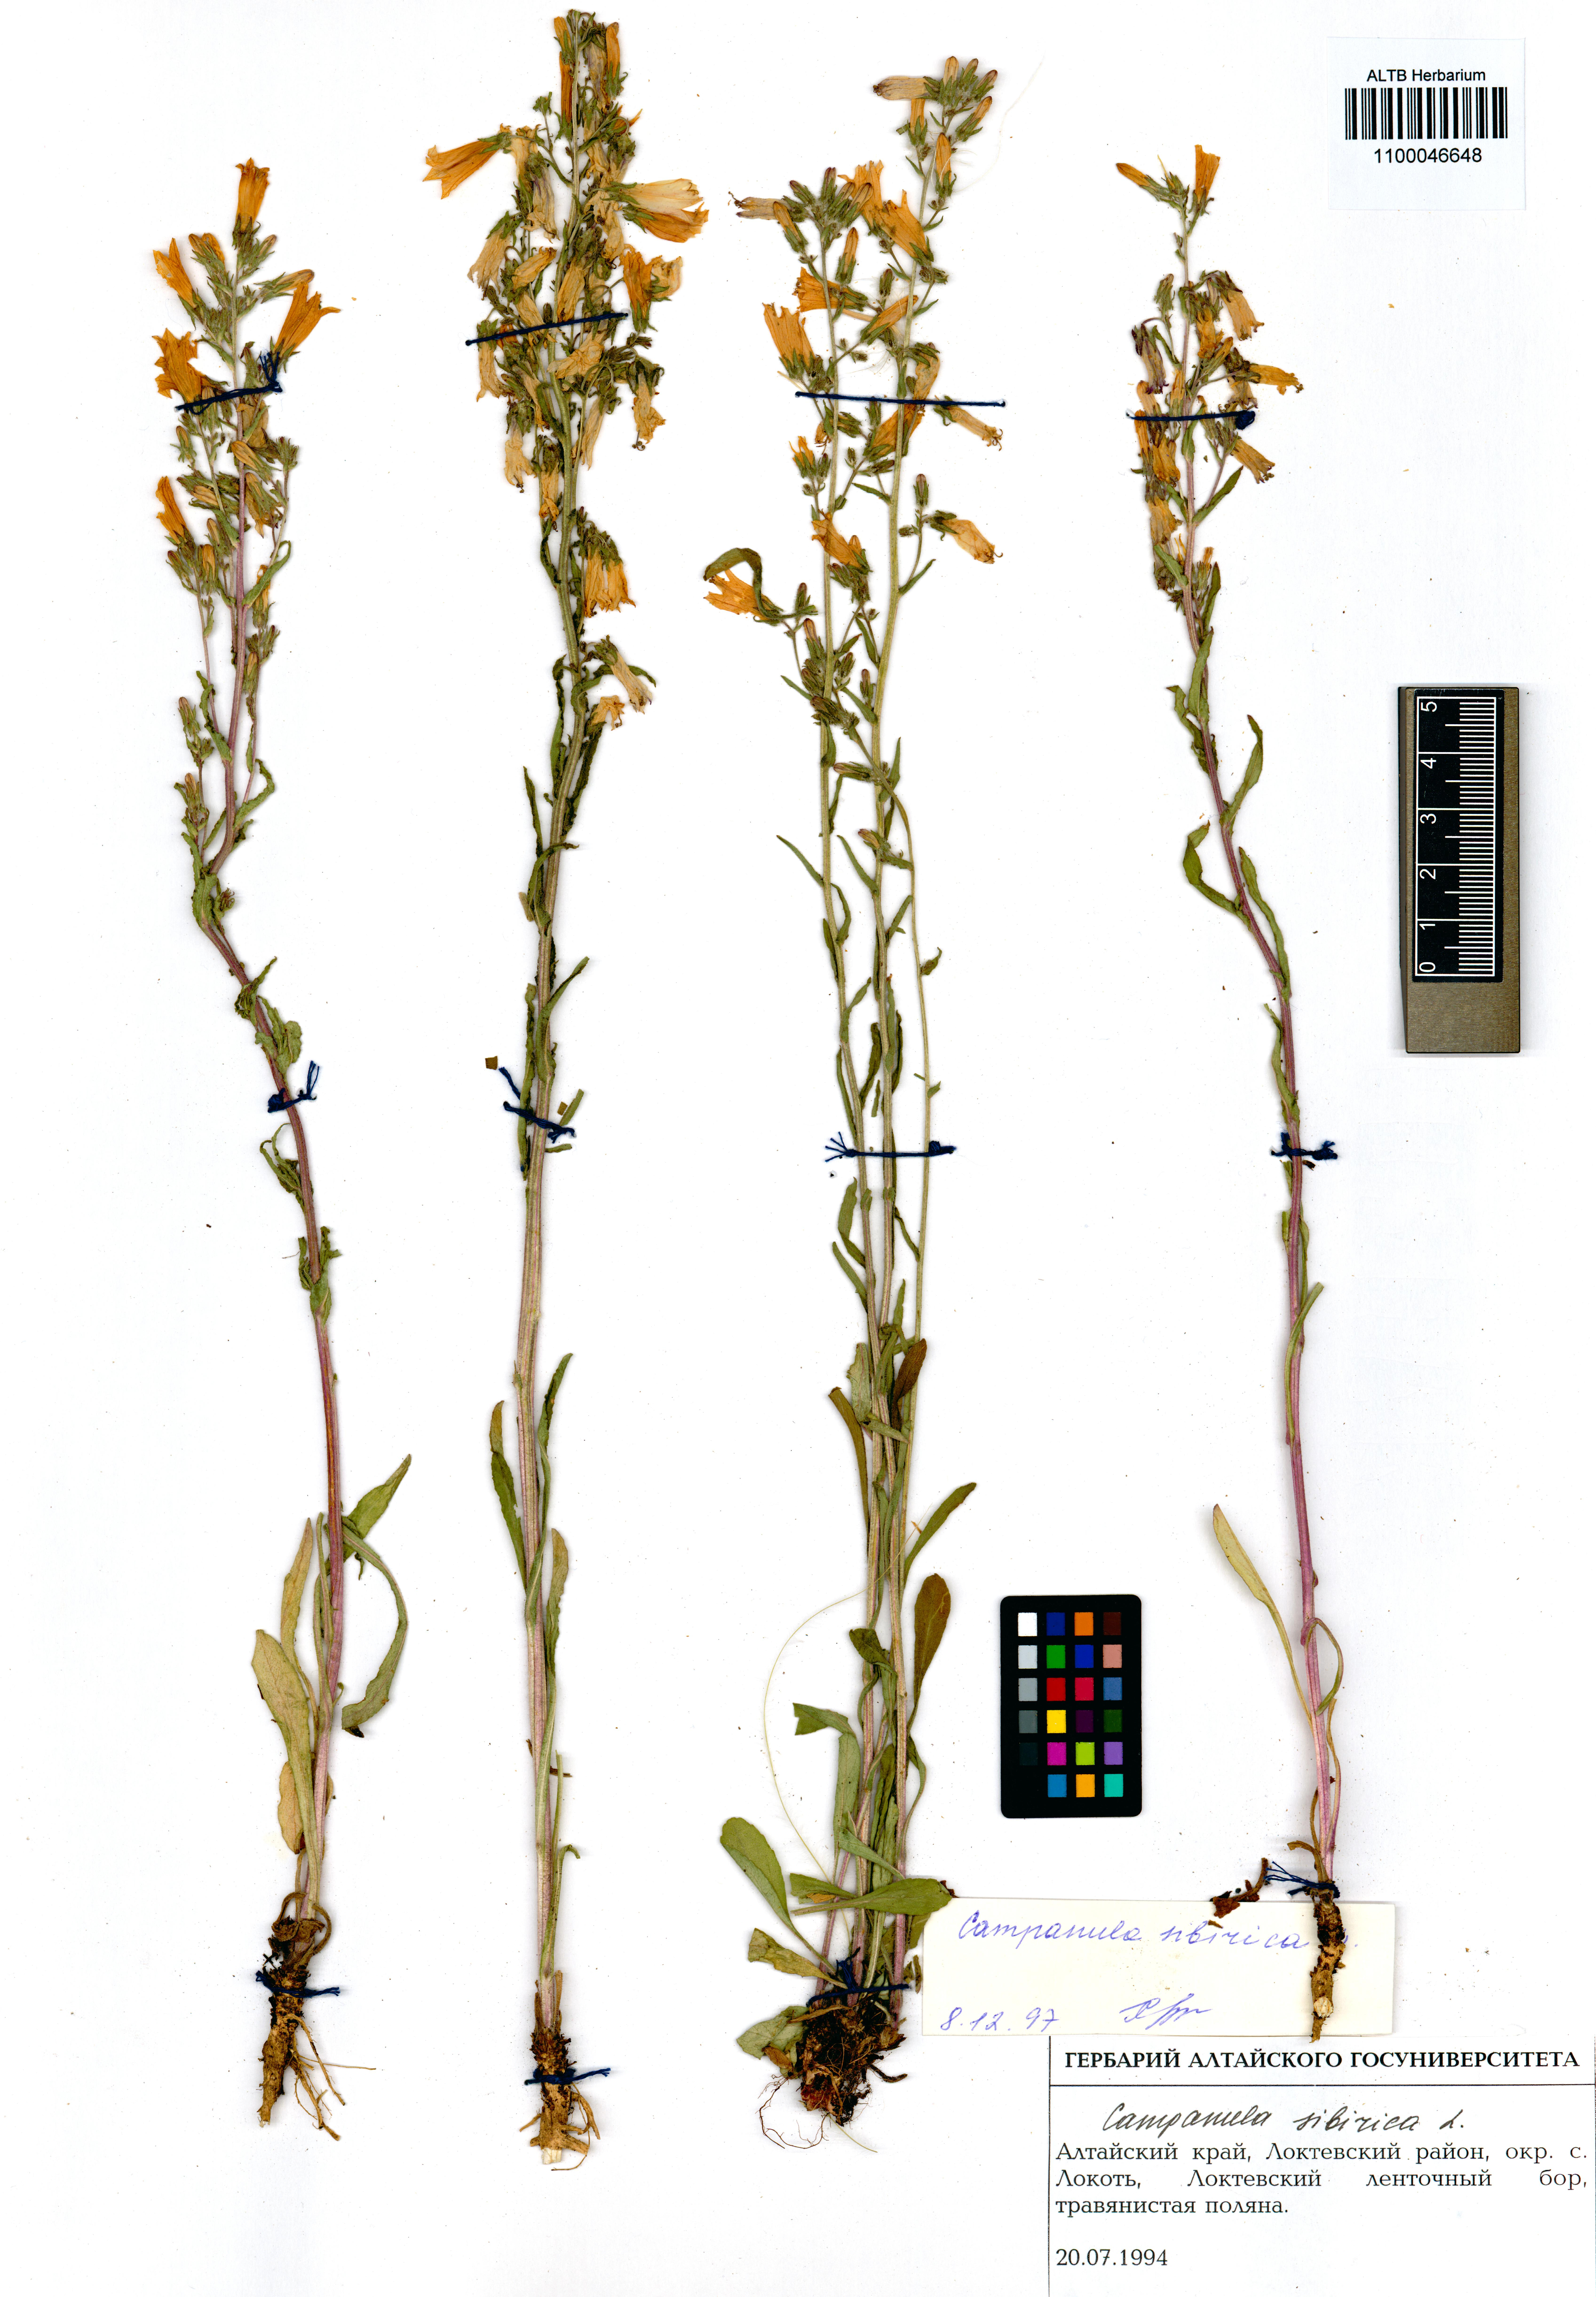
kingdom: Plantae
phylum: Tracheophyta
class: Magnoliopsida
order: Asterales
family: Campanulaceae
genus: Campanula
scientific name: Campanula sibirica
